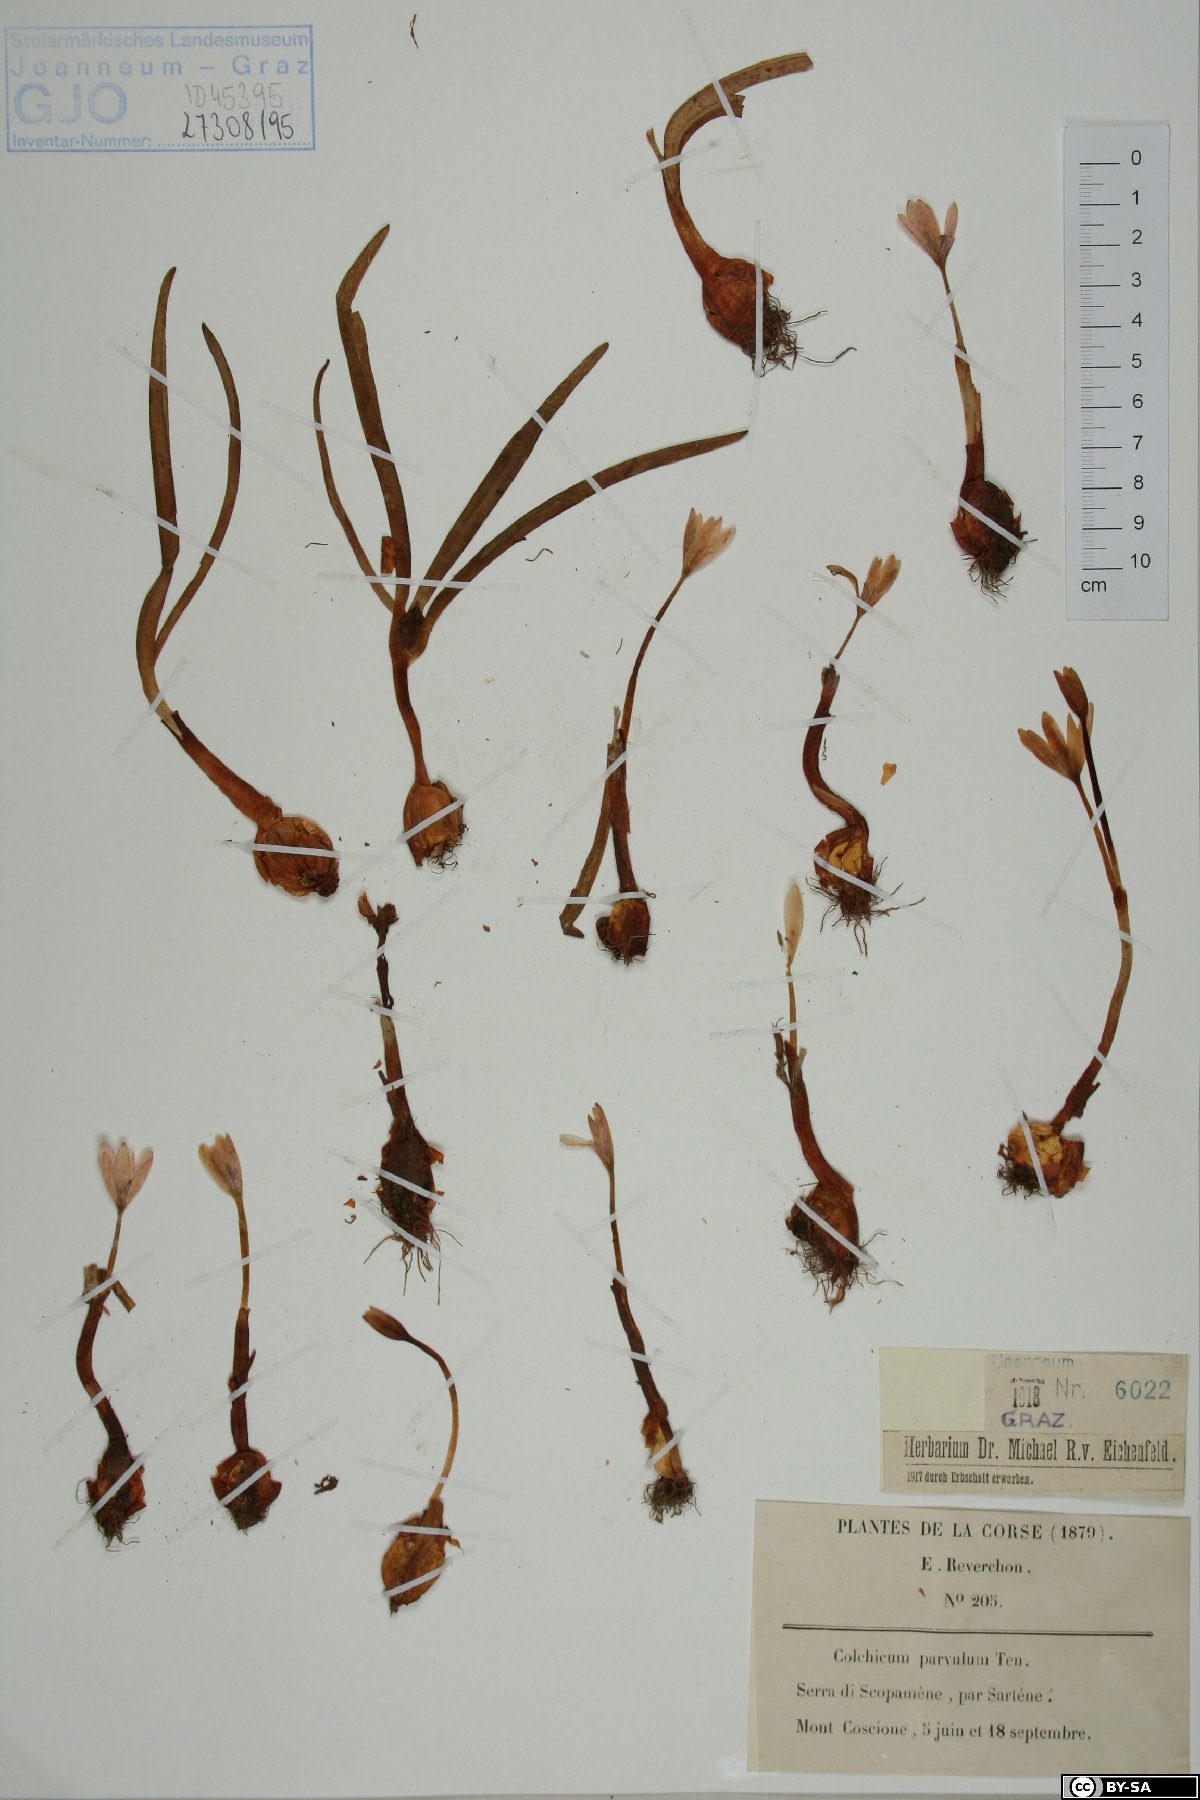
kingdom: Plantae
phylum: Tracheophyta
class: Liliopsida
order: Liliales
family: Colchicaceae
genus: Colchicum
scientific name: Colchicum alpinum
